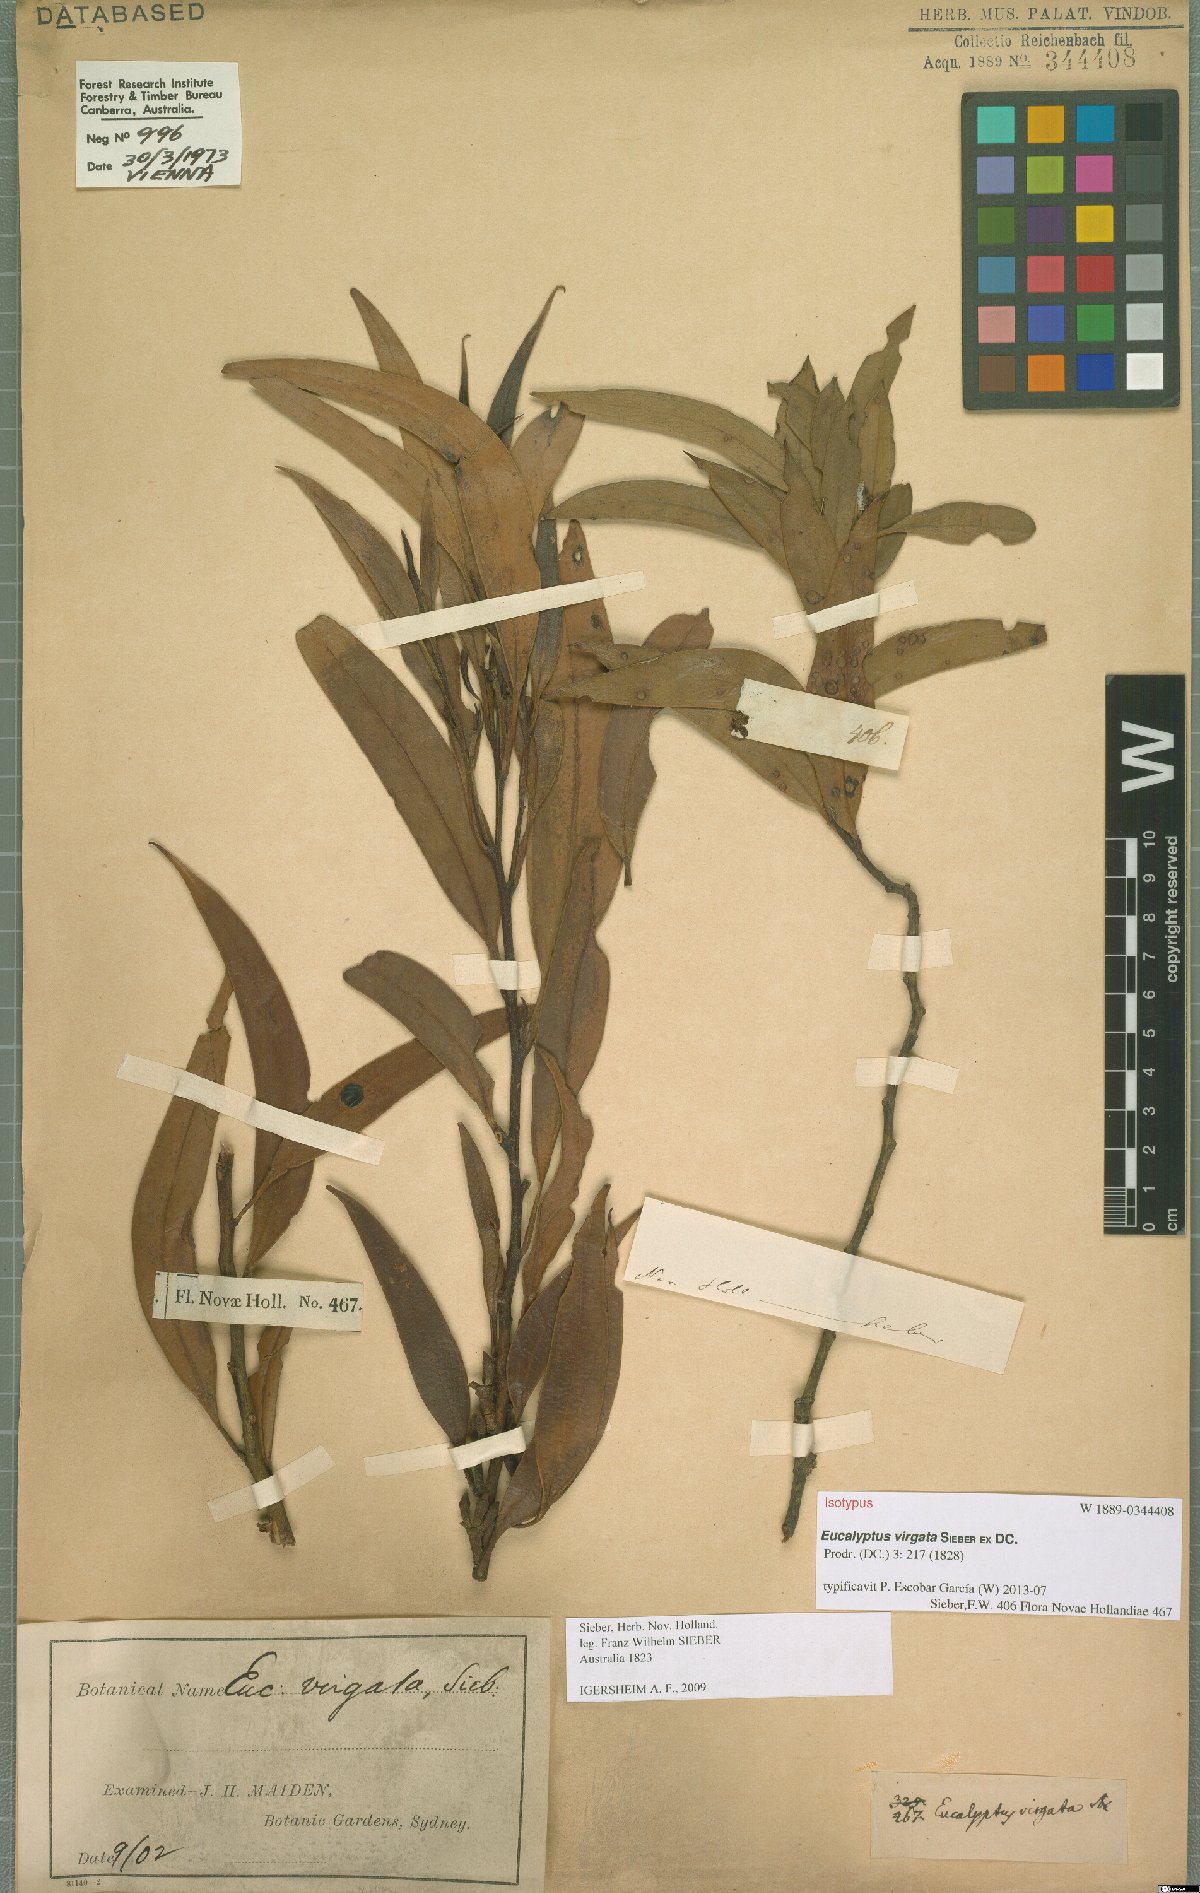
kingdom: Plantae
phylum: Tracheophyta
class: Magnoliopsida
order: Myrtales
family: Myrtaceae
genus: Eucalyptus
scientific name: Eucalyptus virgata
